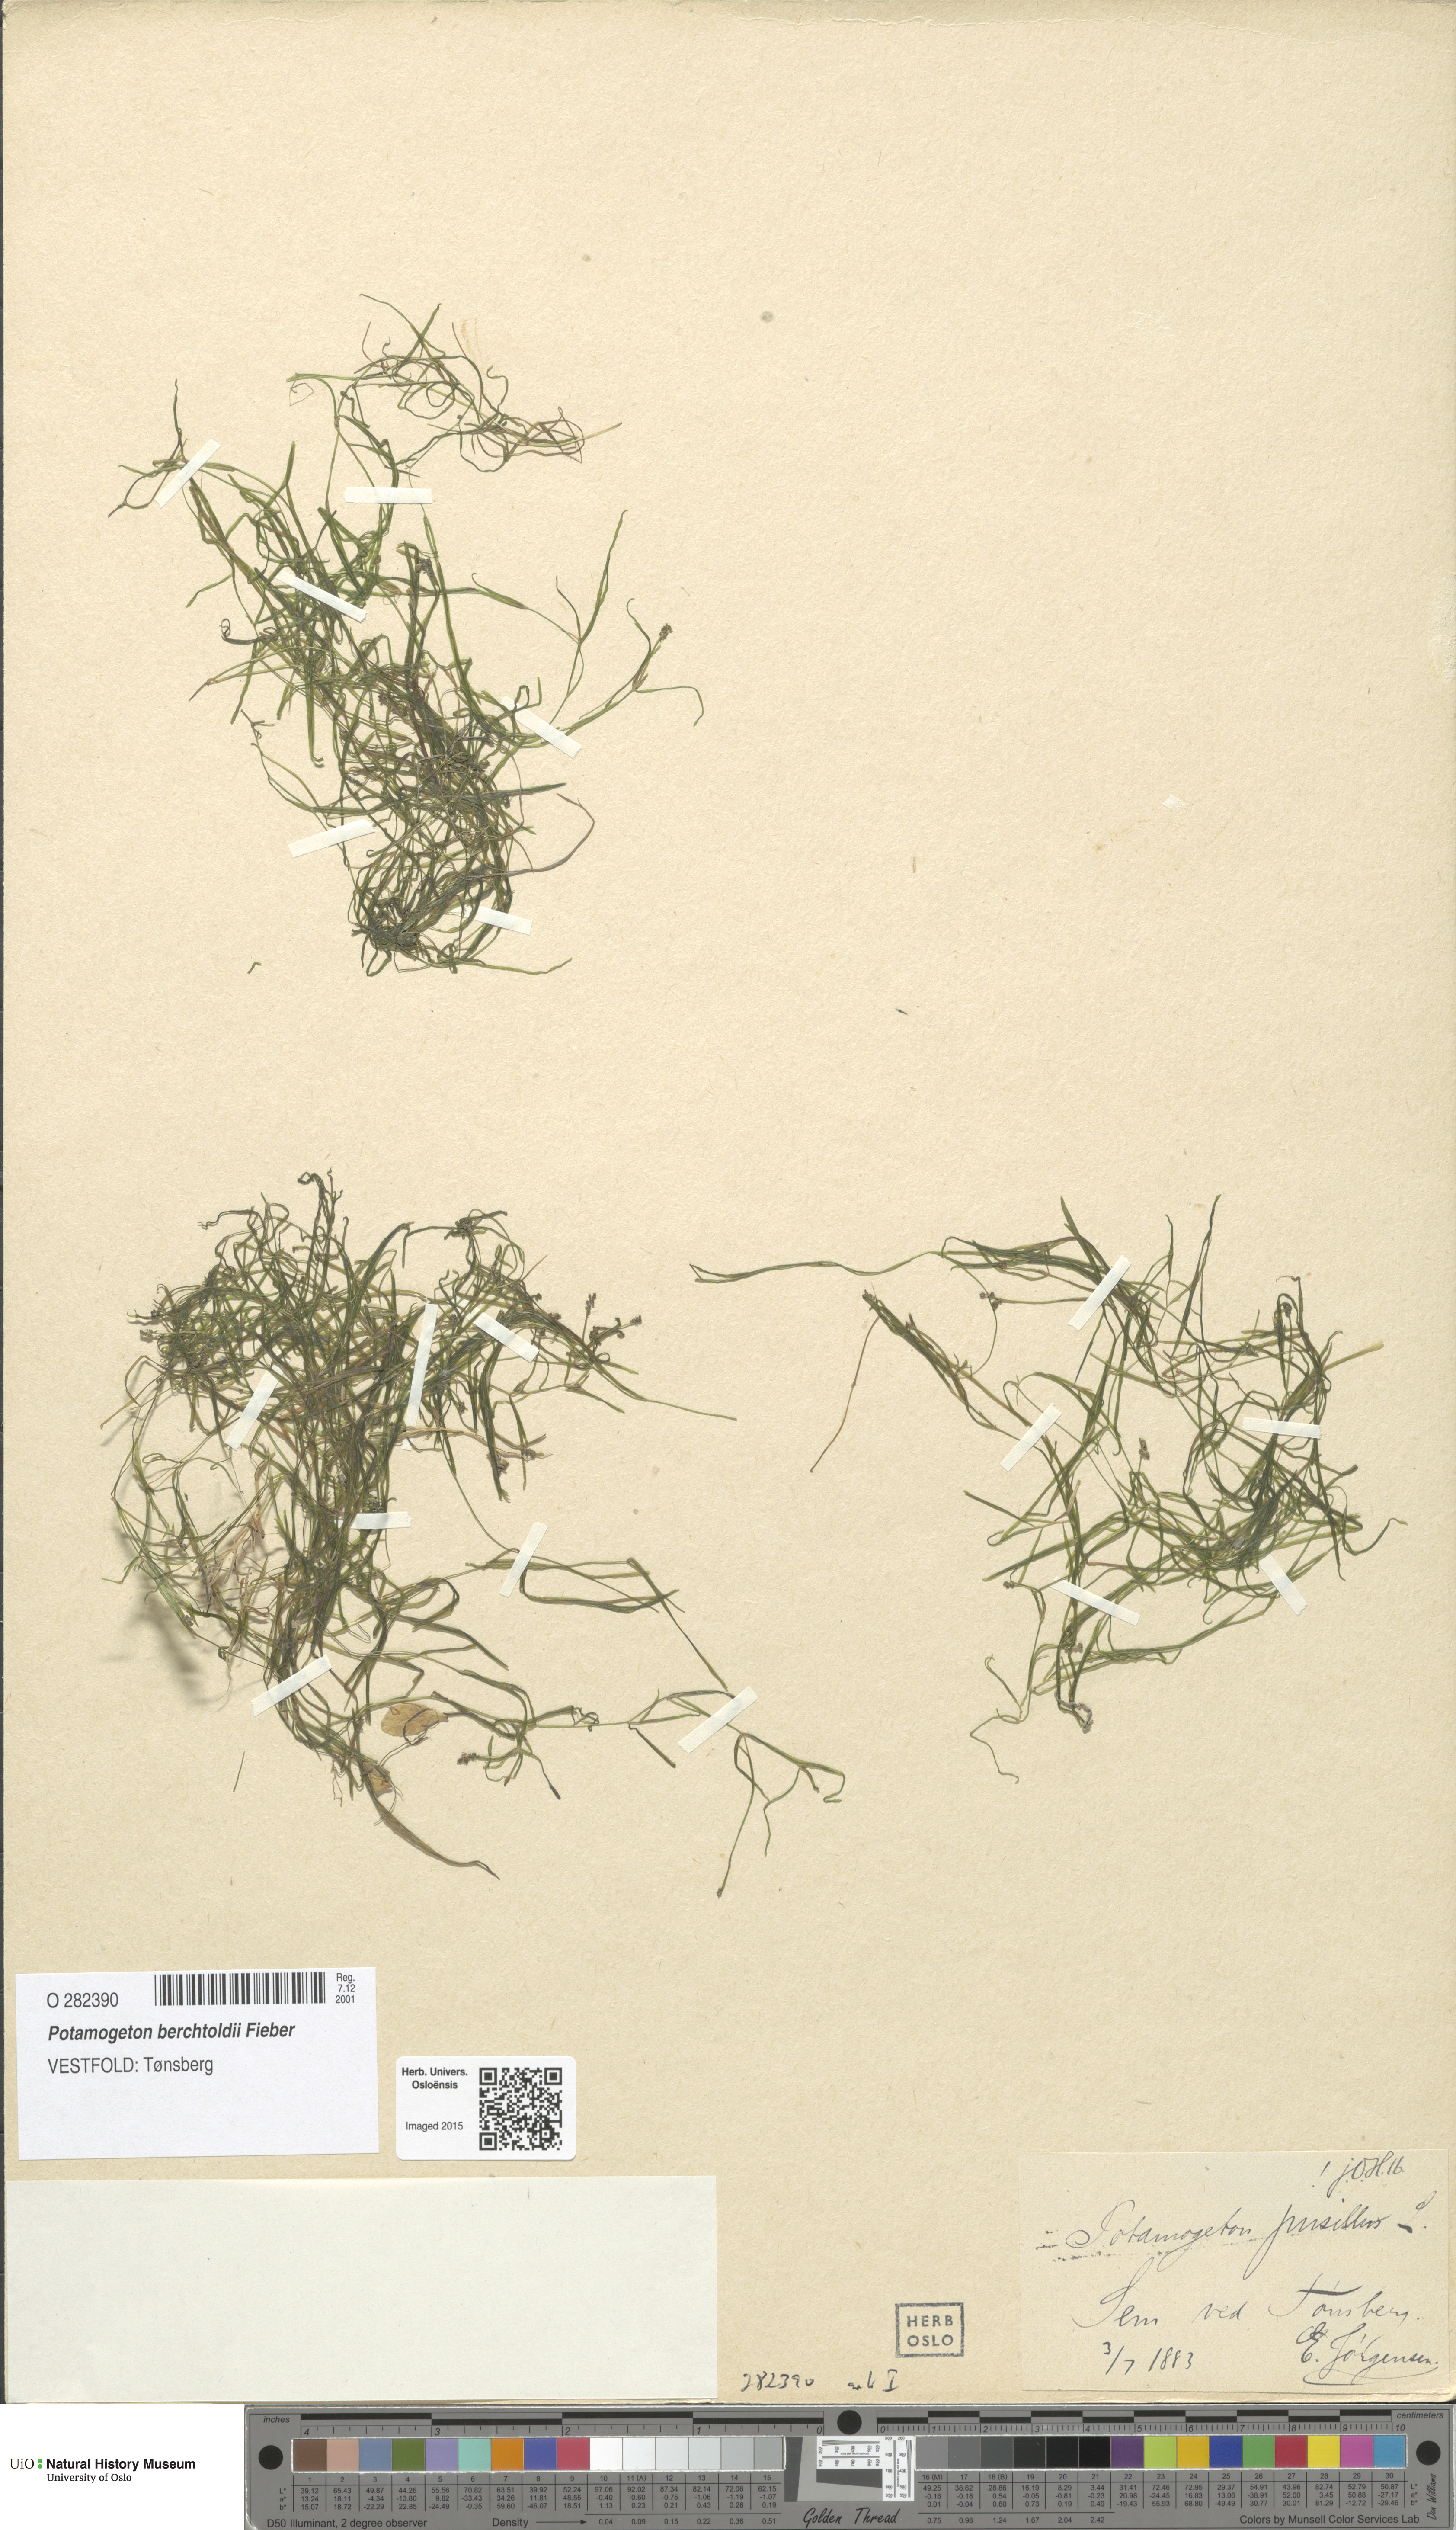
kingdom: Plantae
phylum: Tracheophyta
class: Liliopsida
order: Alismatales
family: Potamogetonaceae
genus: Potamogeton
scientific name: Potamogeton berchtoldii
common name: Small pondweed
